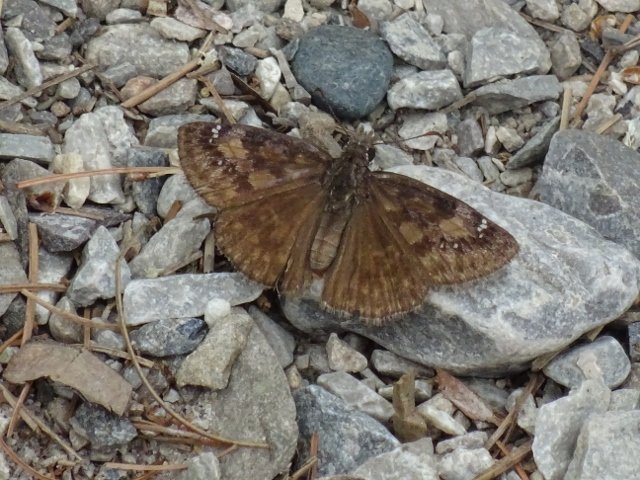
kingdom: Animalia
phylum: Arthropoda
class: Insecta
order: Lepidoptera
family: Hesperiidae
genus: Gesta
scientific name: Gesta
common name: Wild Indigo Duskywing
